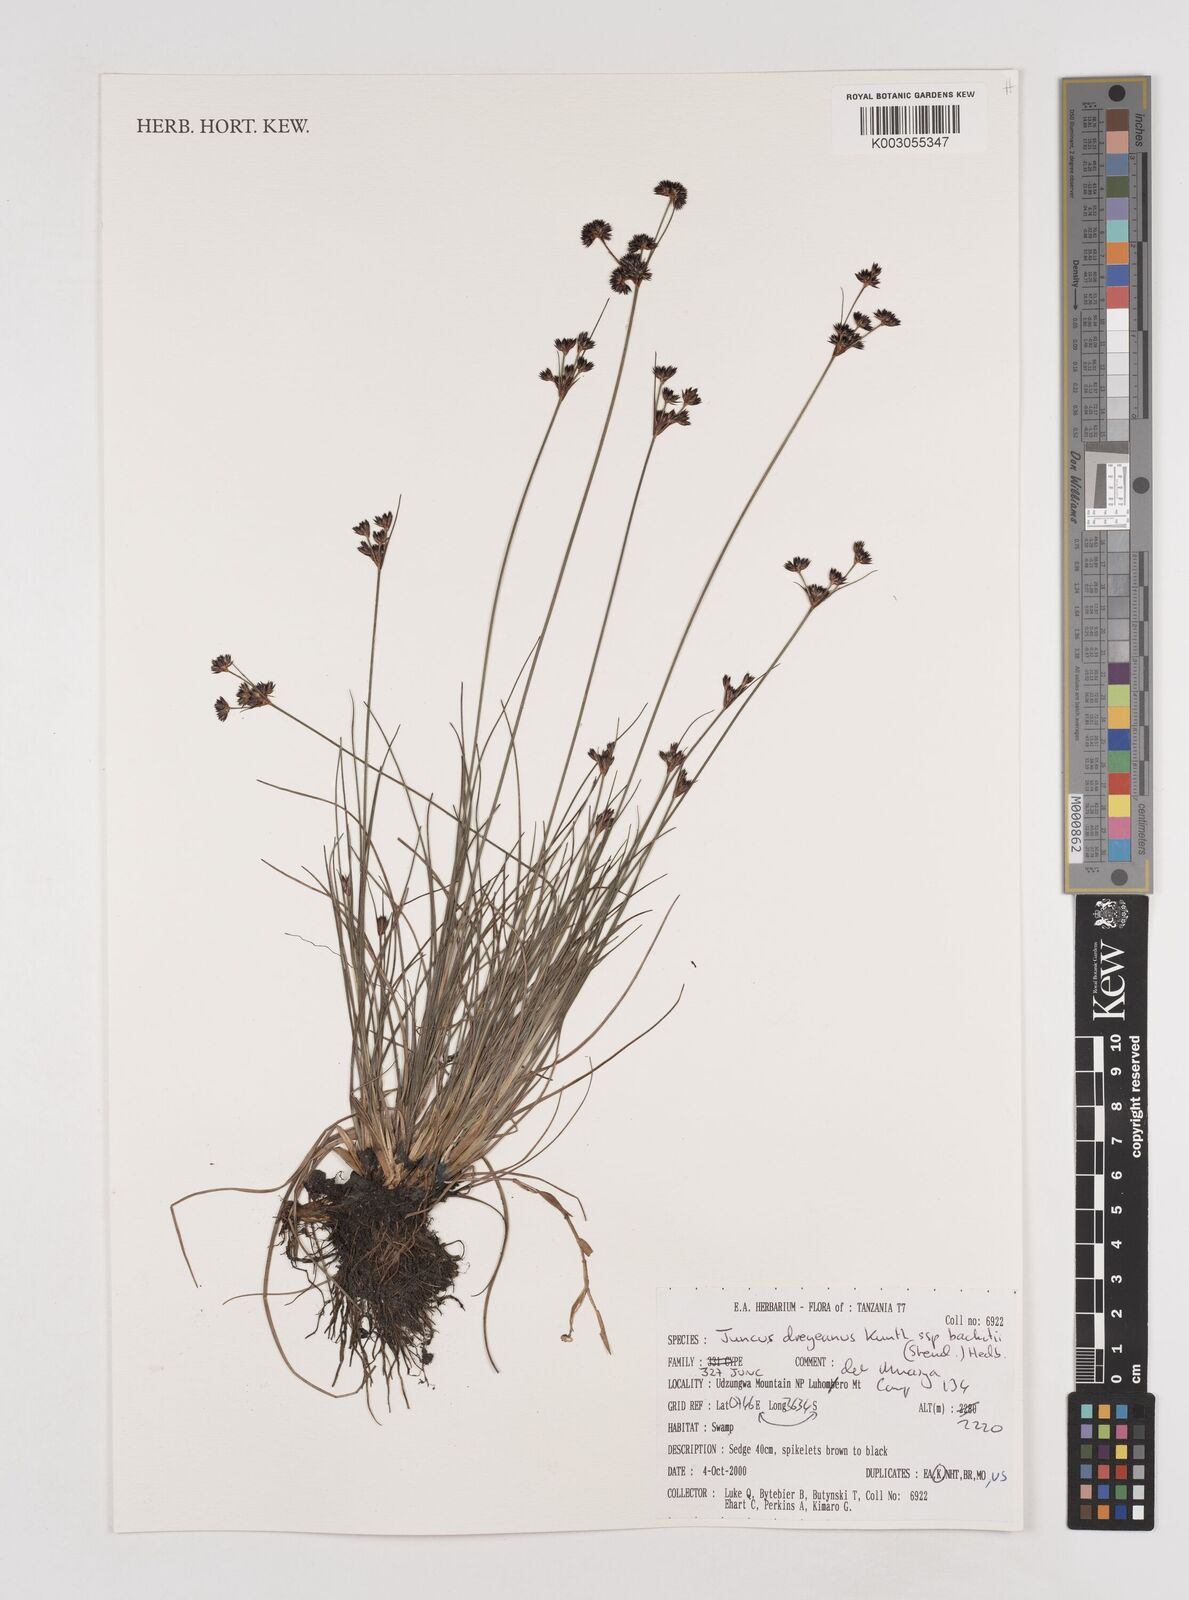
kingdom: Plantae
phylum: Tracheophyta
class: Liliopsida
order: Poales
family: Juncaceae
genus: Juncus
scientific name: Juncus dregeanus
